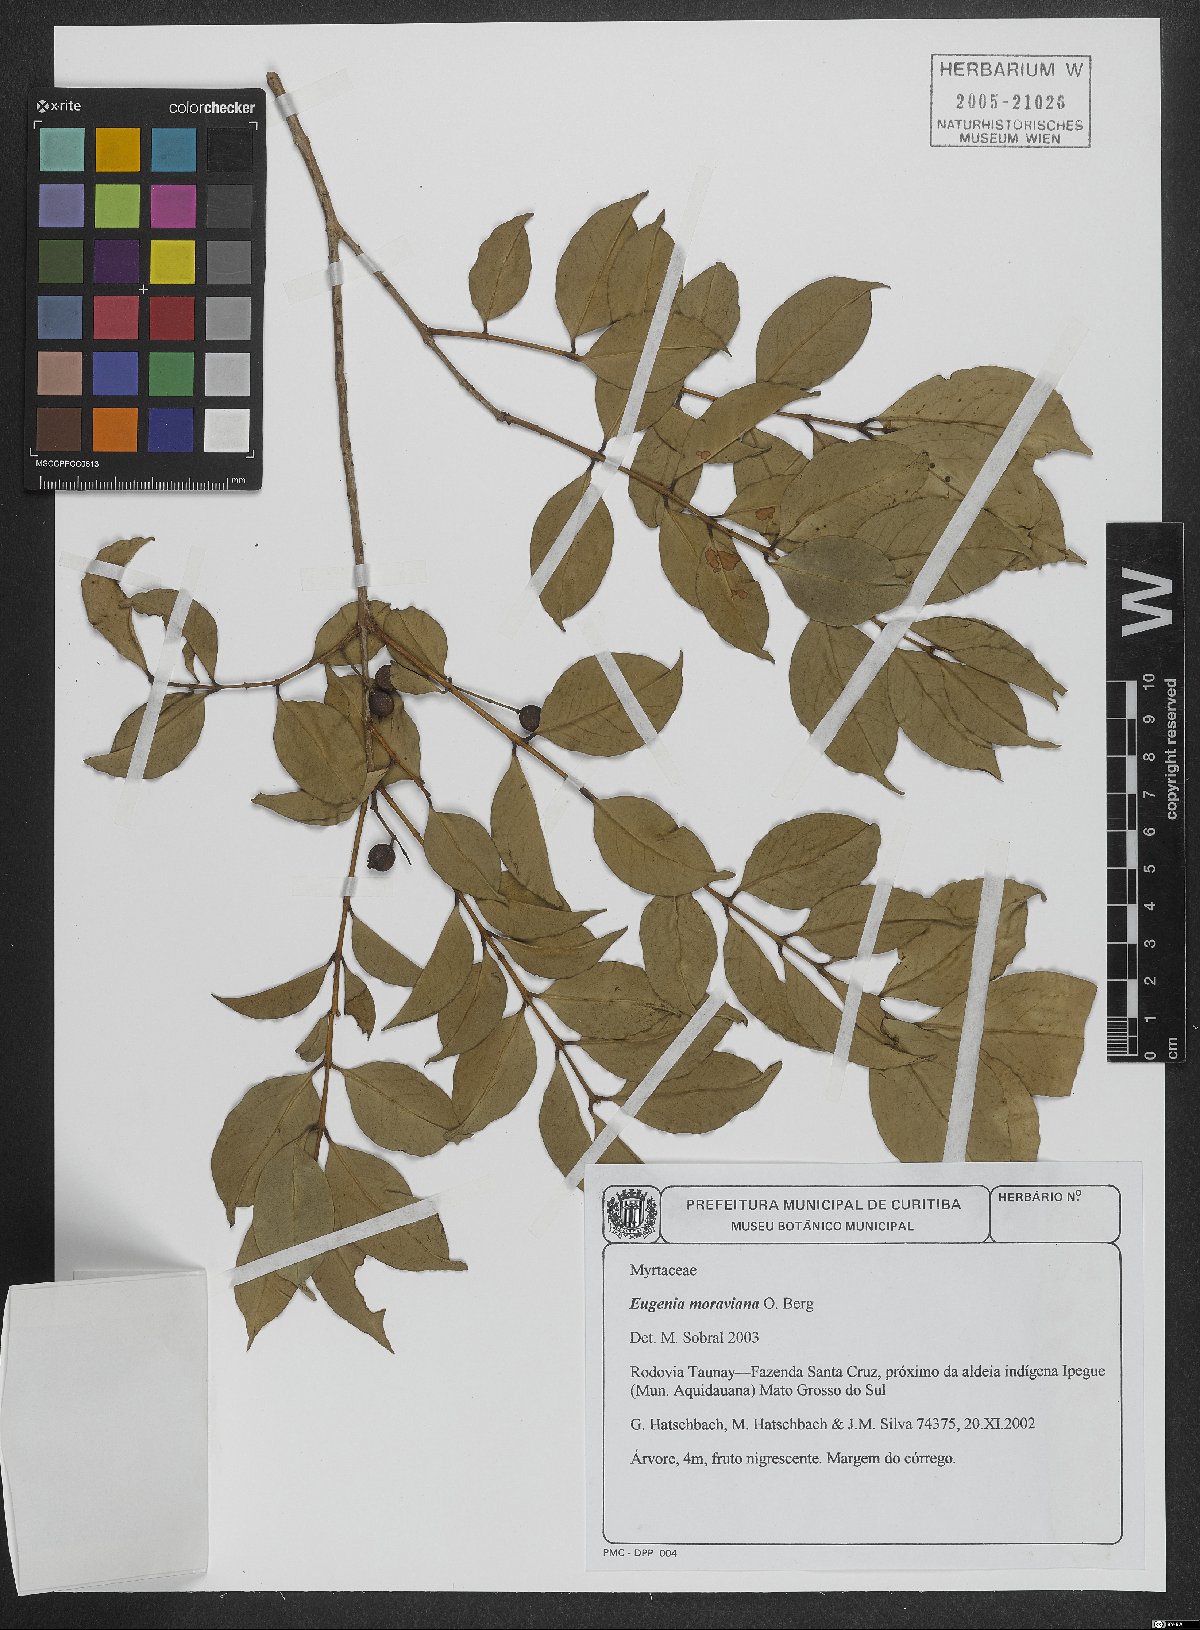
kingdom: Plantae
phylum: Tracheophyta
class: Magnoliopsida
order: Myrtales
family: Myrtaceae
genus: Eugenia
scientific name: Eugenia moraviana
